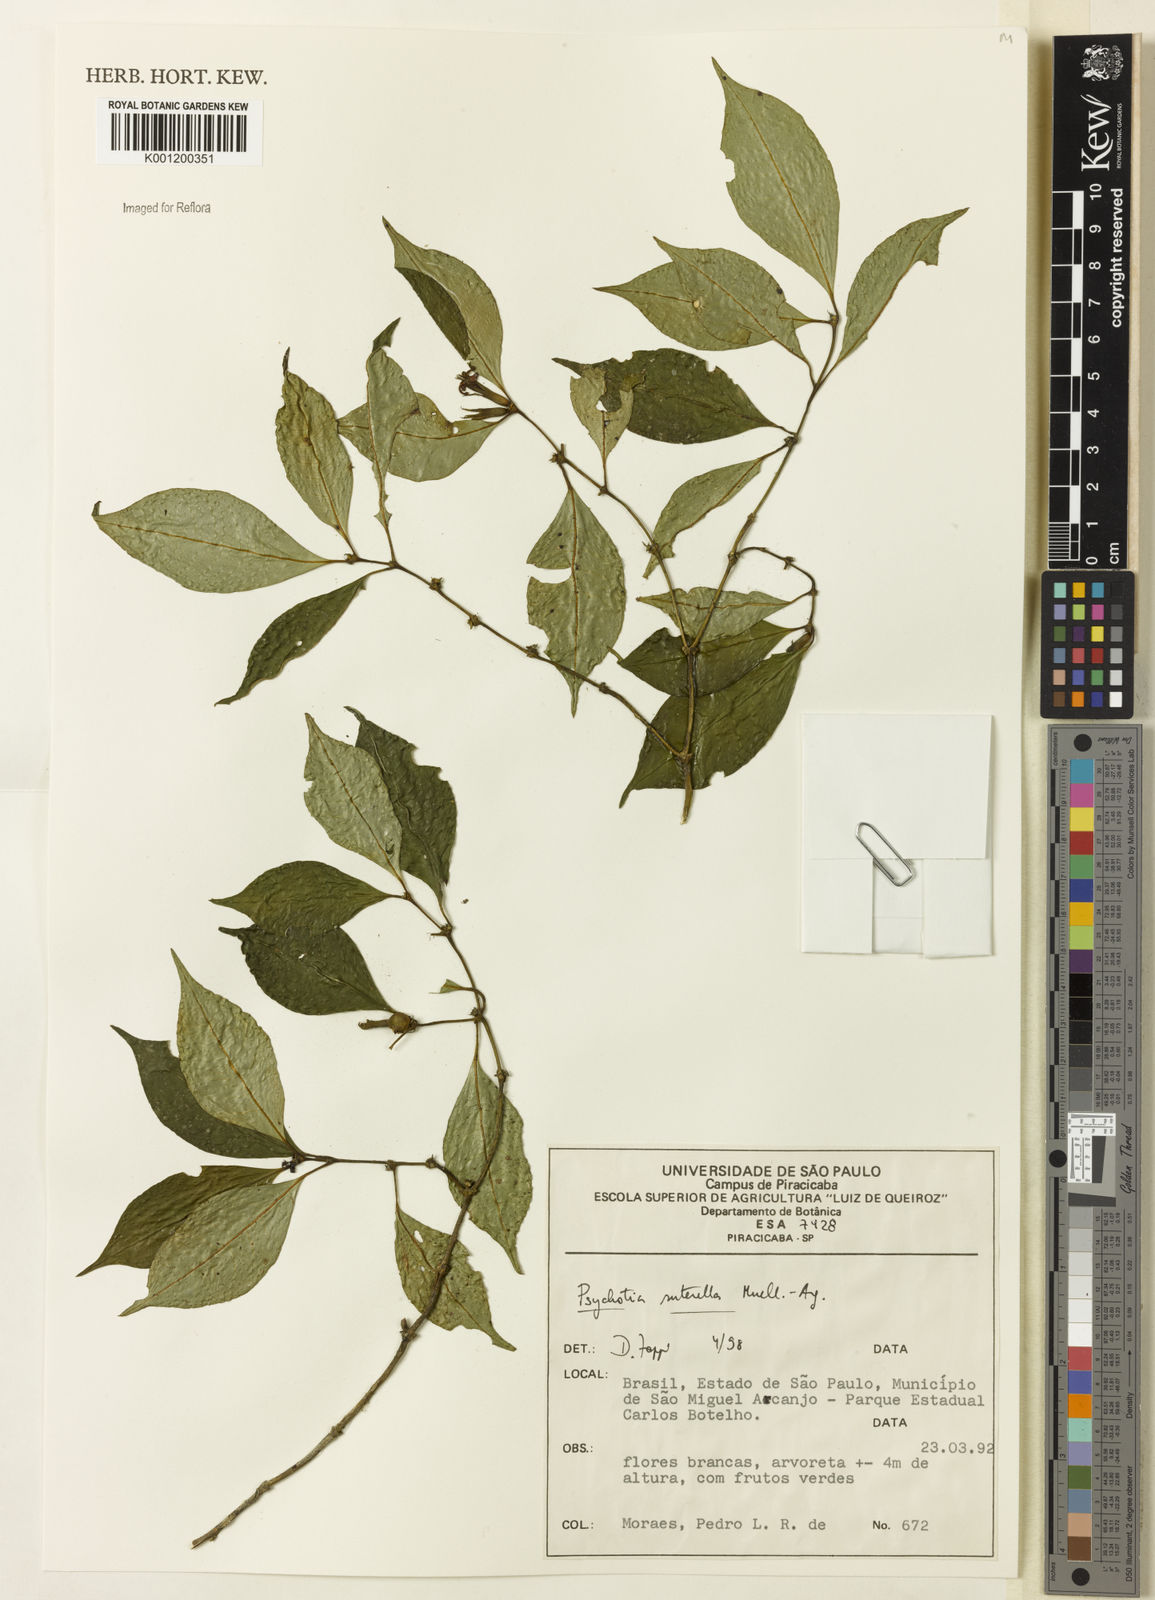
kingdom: Plantae
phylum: Tracheophyta
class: Magnoliopsida
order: Gentianales
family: Rubiaceae
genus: Psychotria
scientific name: Psychotria
